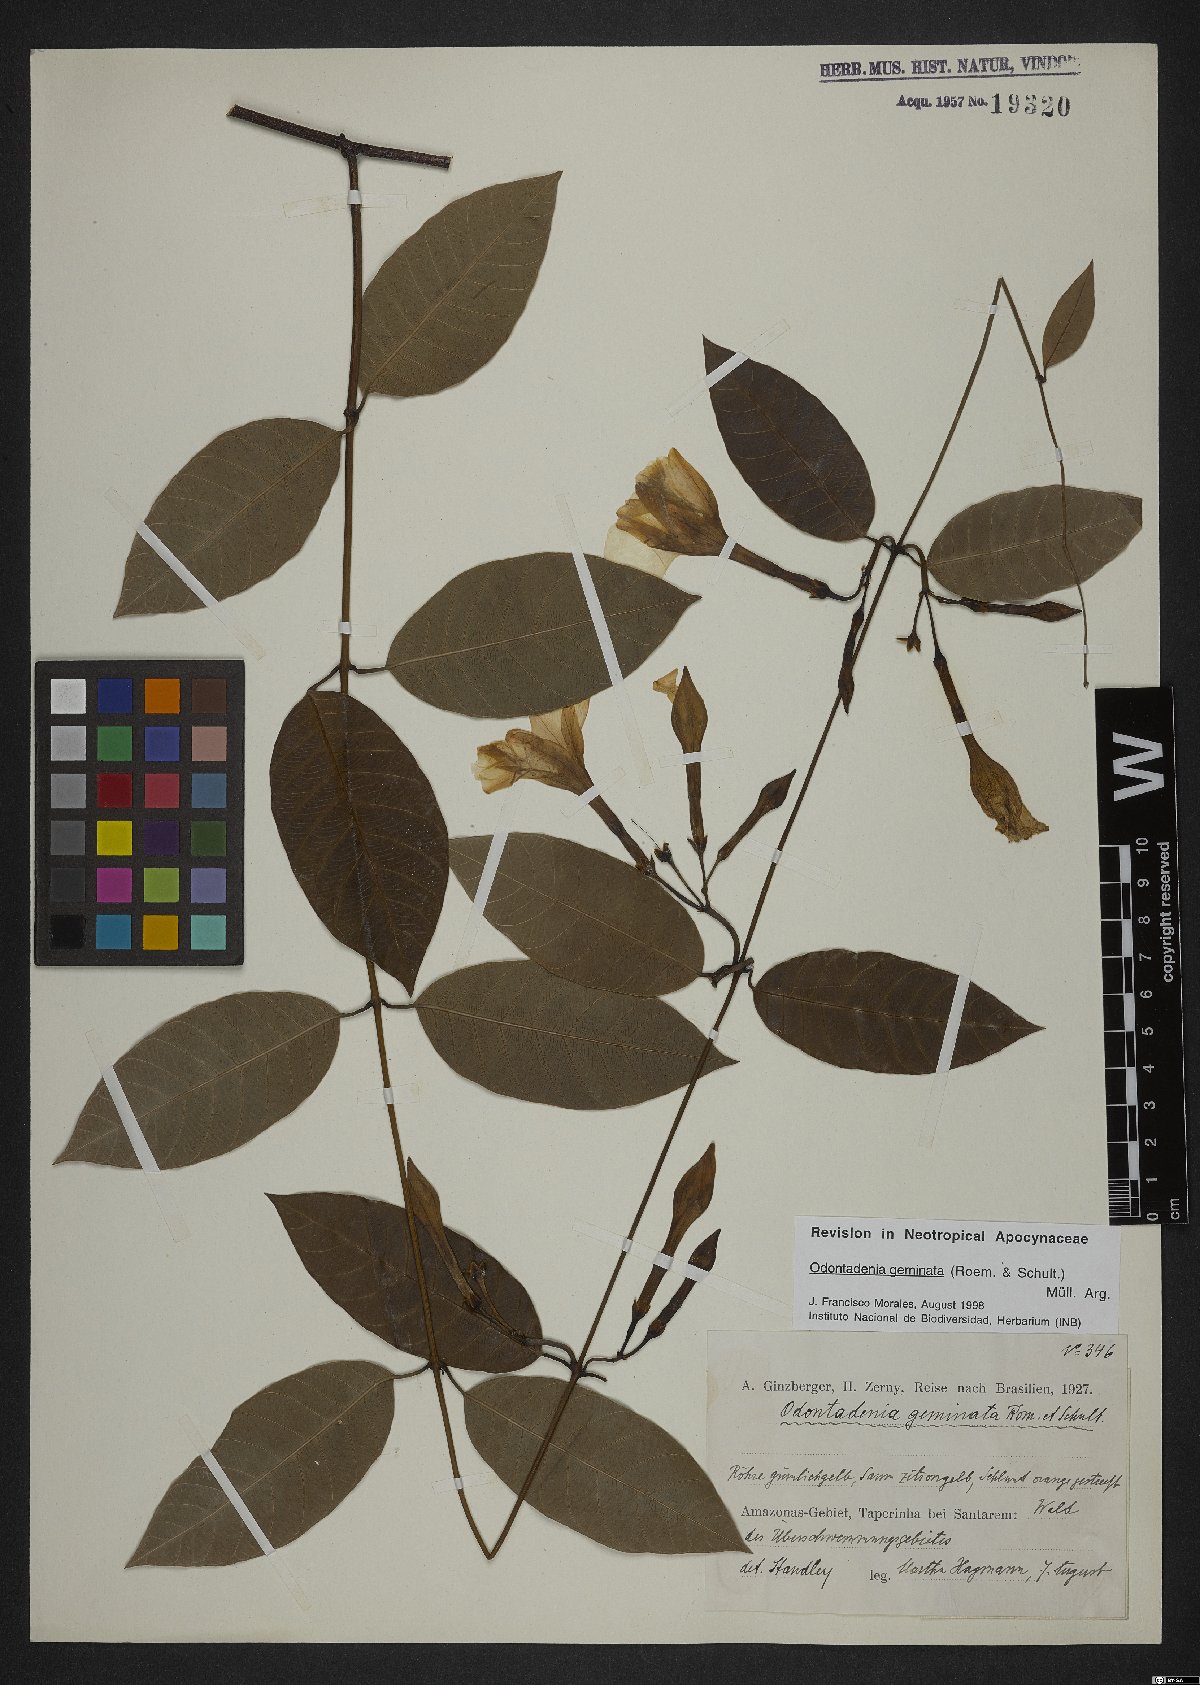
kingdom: Plantae
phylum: Tracheophyta
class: Magnoliopsida
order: Gentianales
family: Apocynaceae
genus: Odontadenia
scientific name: Odontadenia geminata
